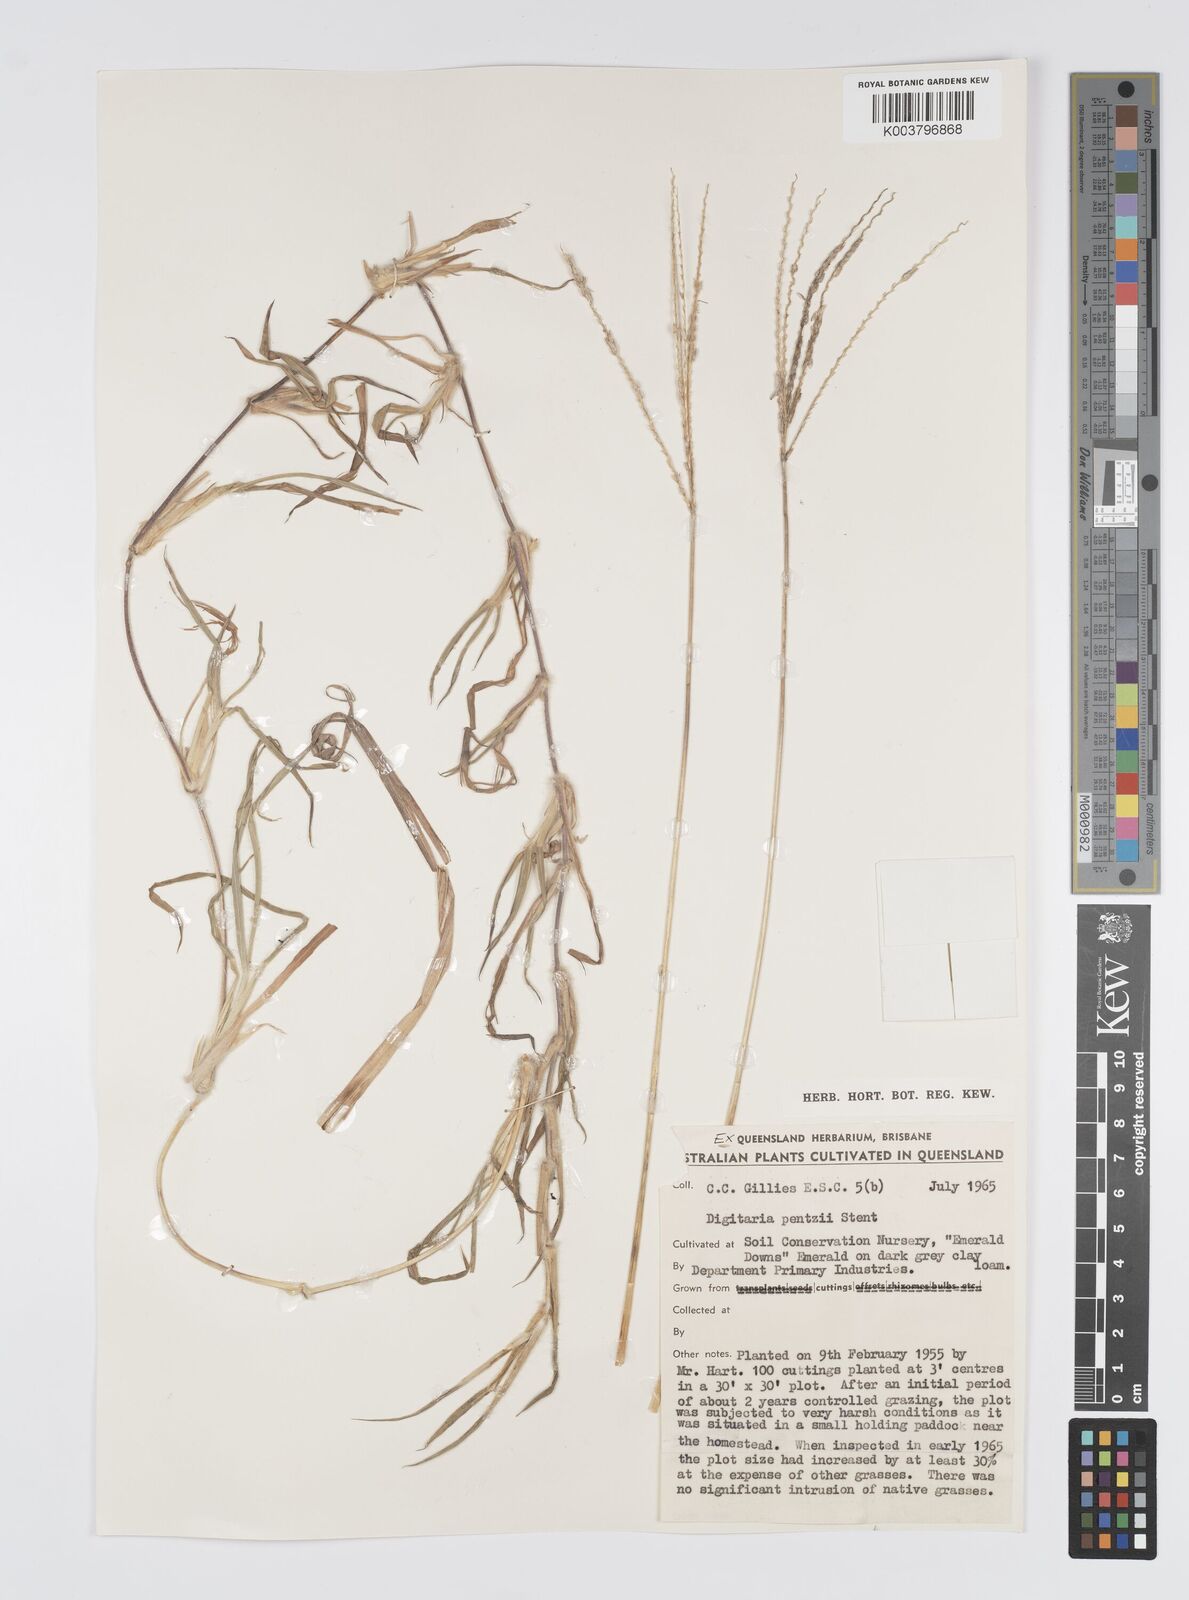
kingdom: Plantae
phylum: Tracheophyta
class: Liliopsida
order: Poales
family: Poaceae
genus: Digitaria
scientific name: Digitaria eriantha
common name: Digitgrass
